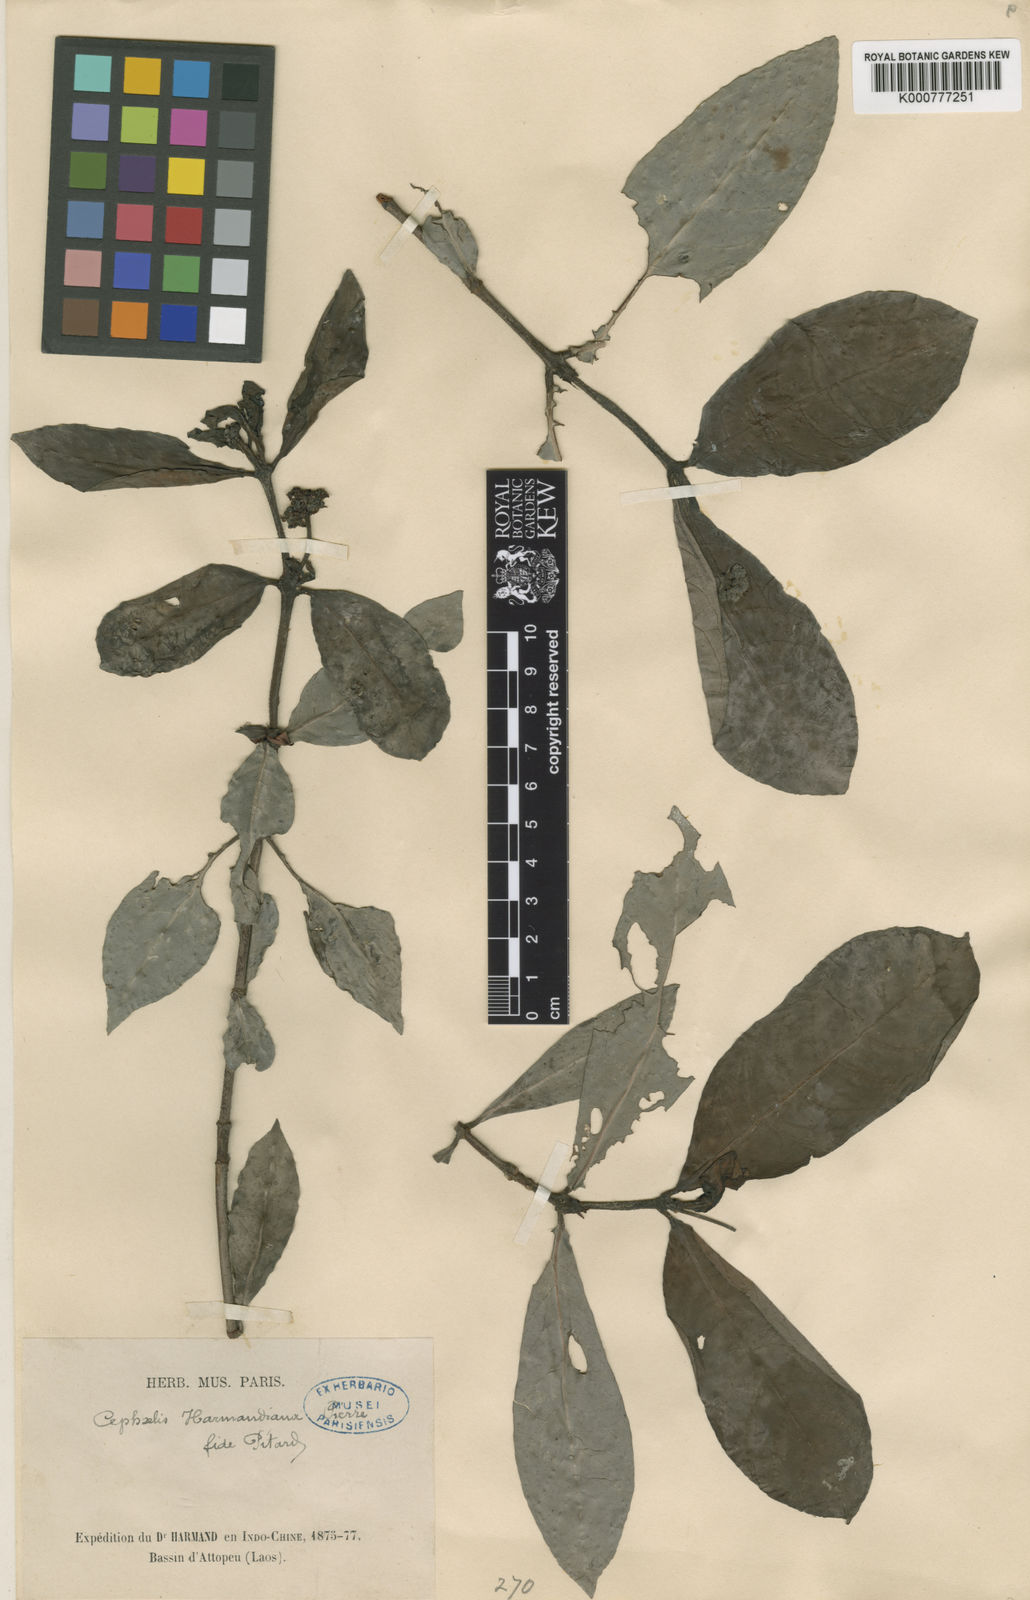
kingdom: Plantae
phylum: Tracheophyta
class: Magnoliopsida
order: Gentianales
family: Rubiaceae
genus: Psychotria
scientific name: Psychotria harmandiana
